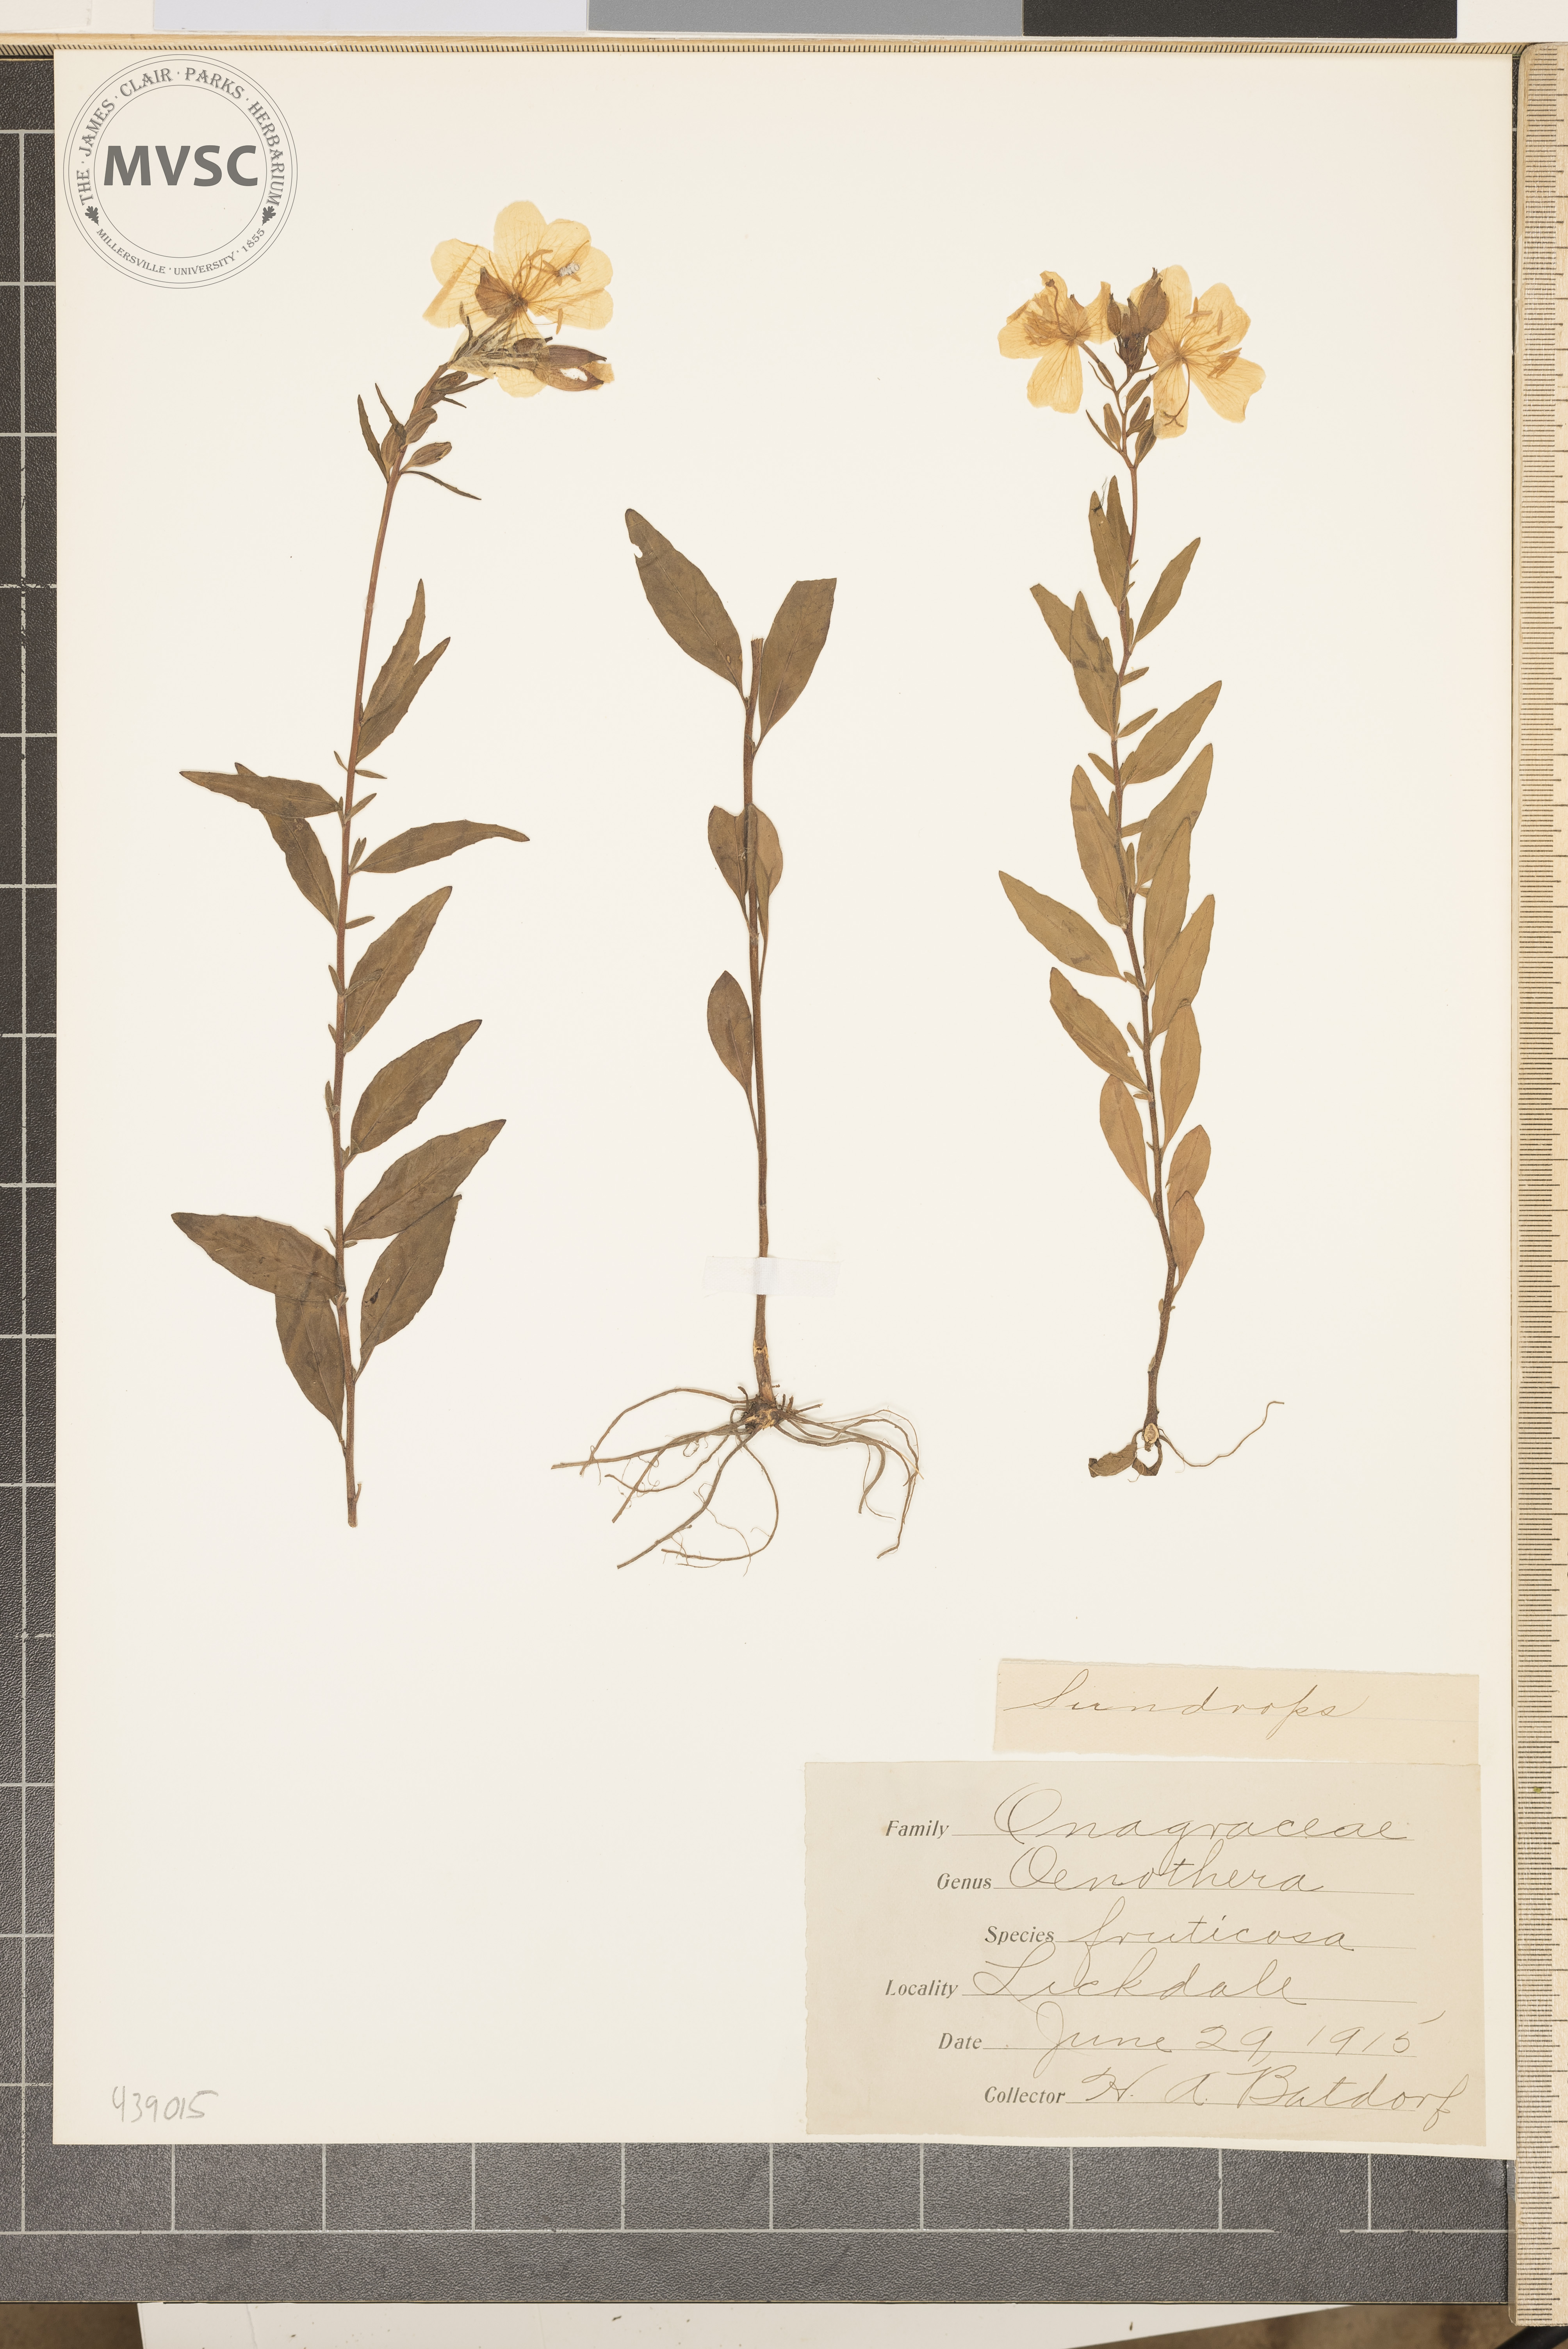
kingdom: Plantae
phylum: Tracheophyta
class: Magnoliopsida
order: Myrtales
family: Onagraceae
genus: Oenothera
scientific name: Oenothera fruticosa
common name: Sundrops
